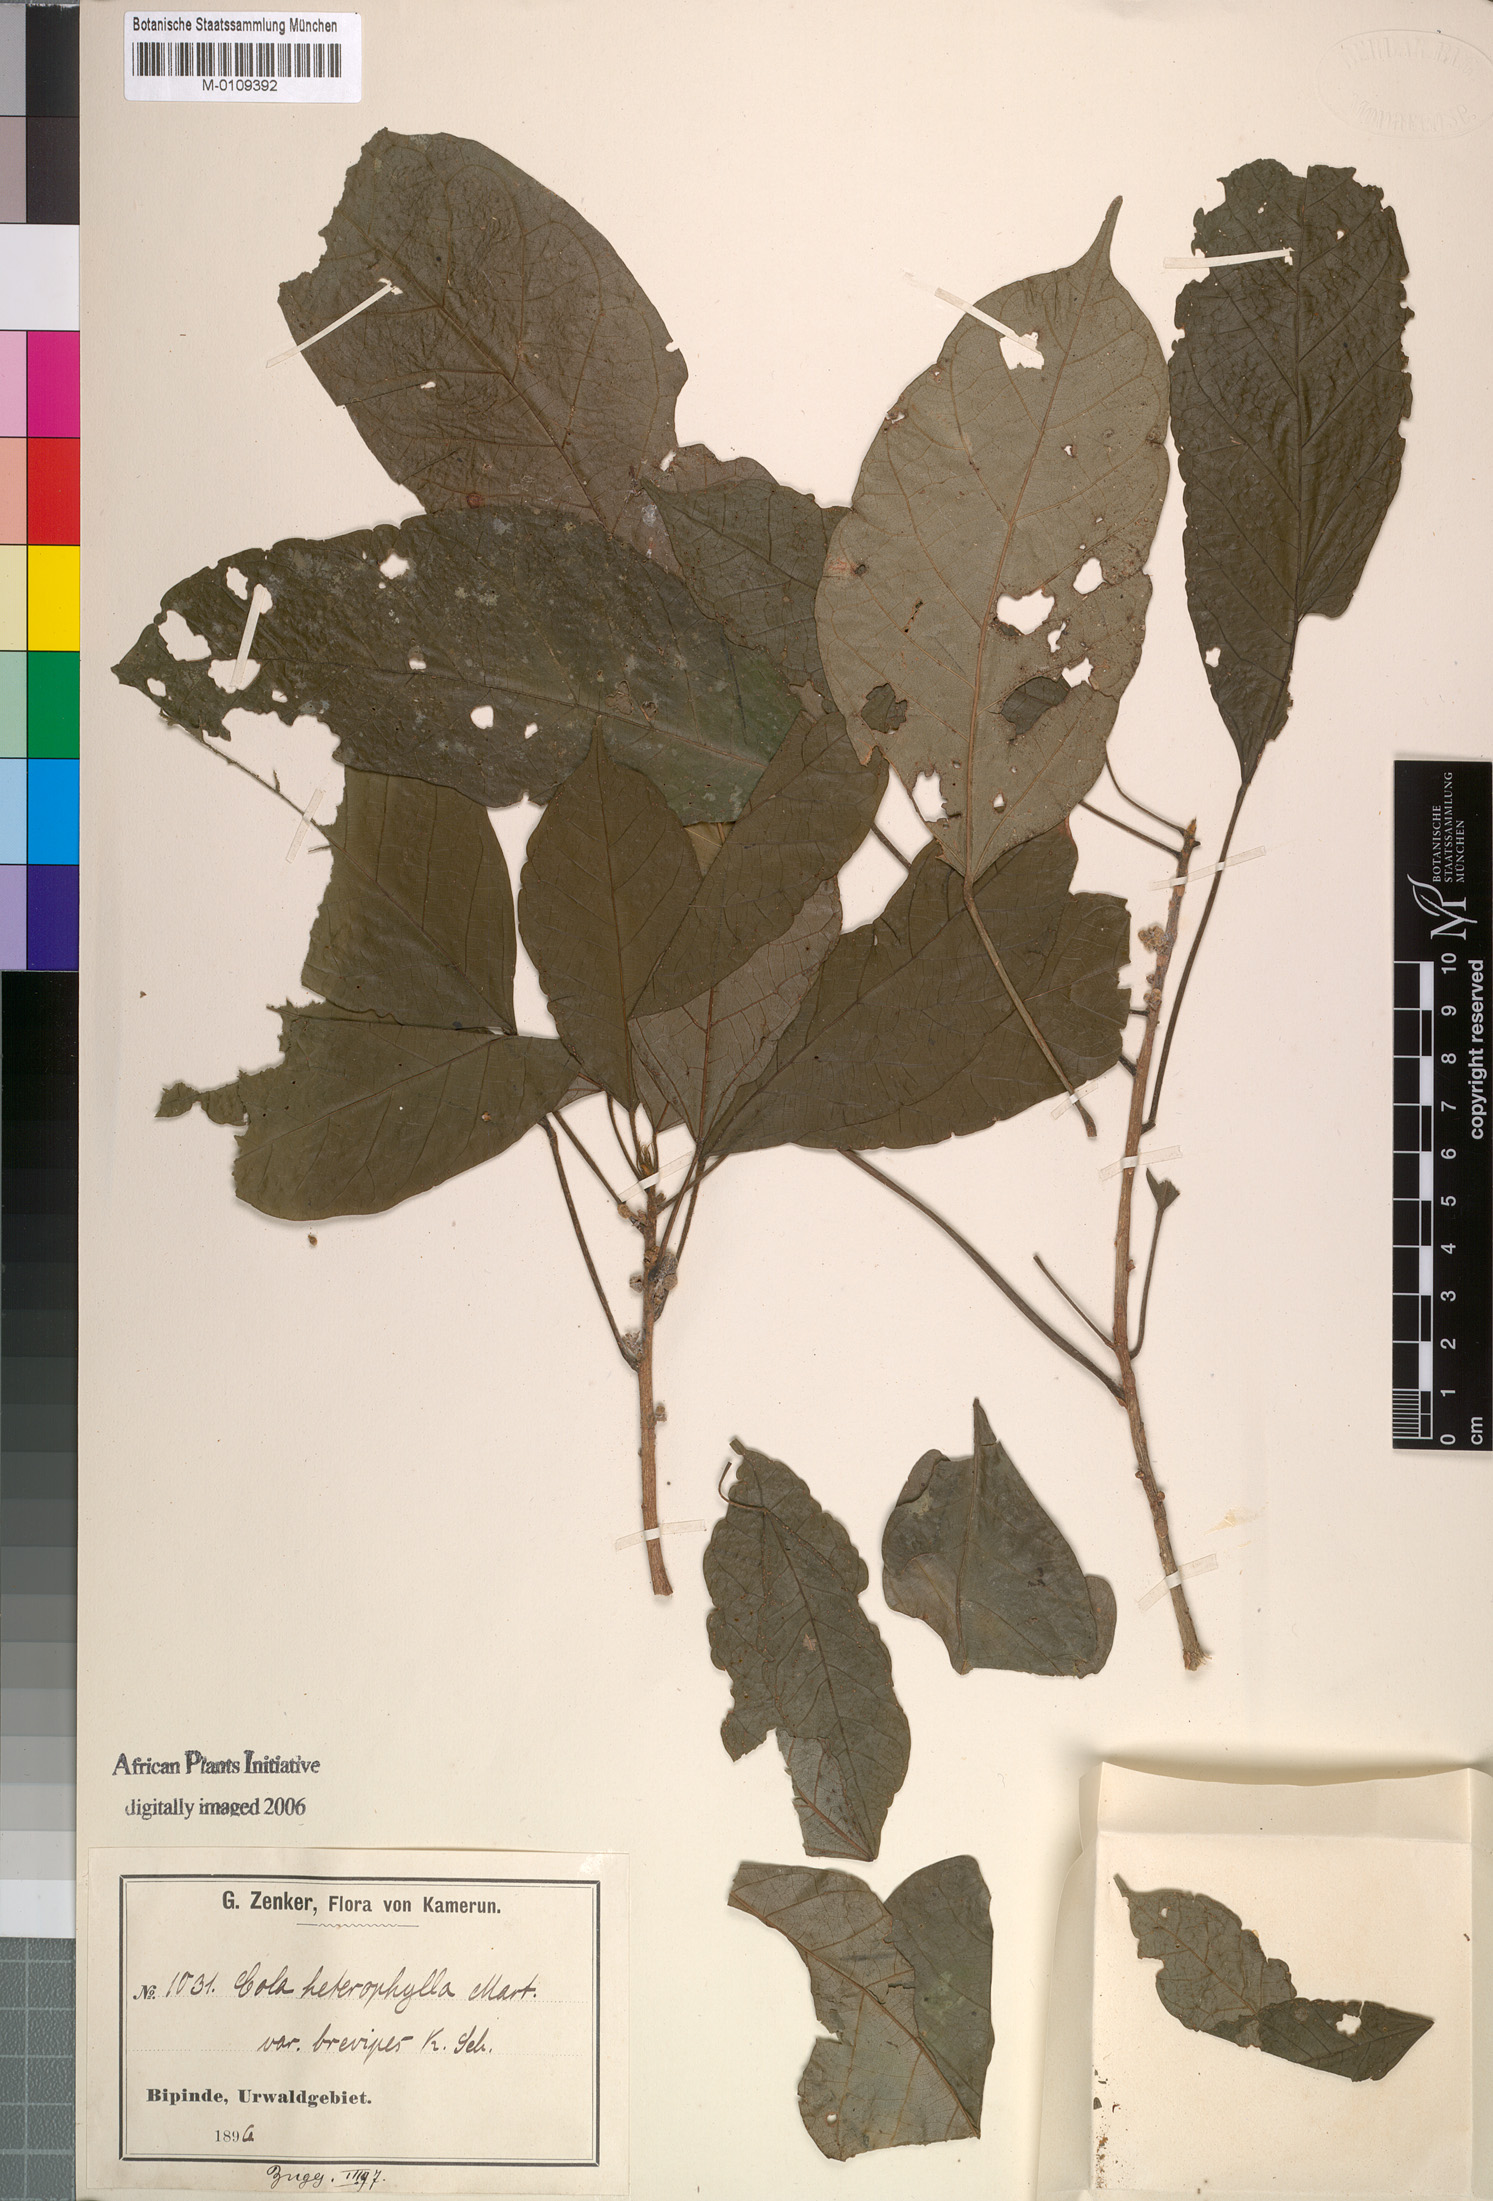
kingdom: Plantae
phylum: Tracheophyta
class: Magnoliopsida
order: Malvales
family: Malvaceae
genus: Cola
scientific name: Cola heterophylla
